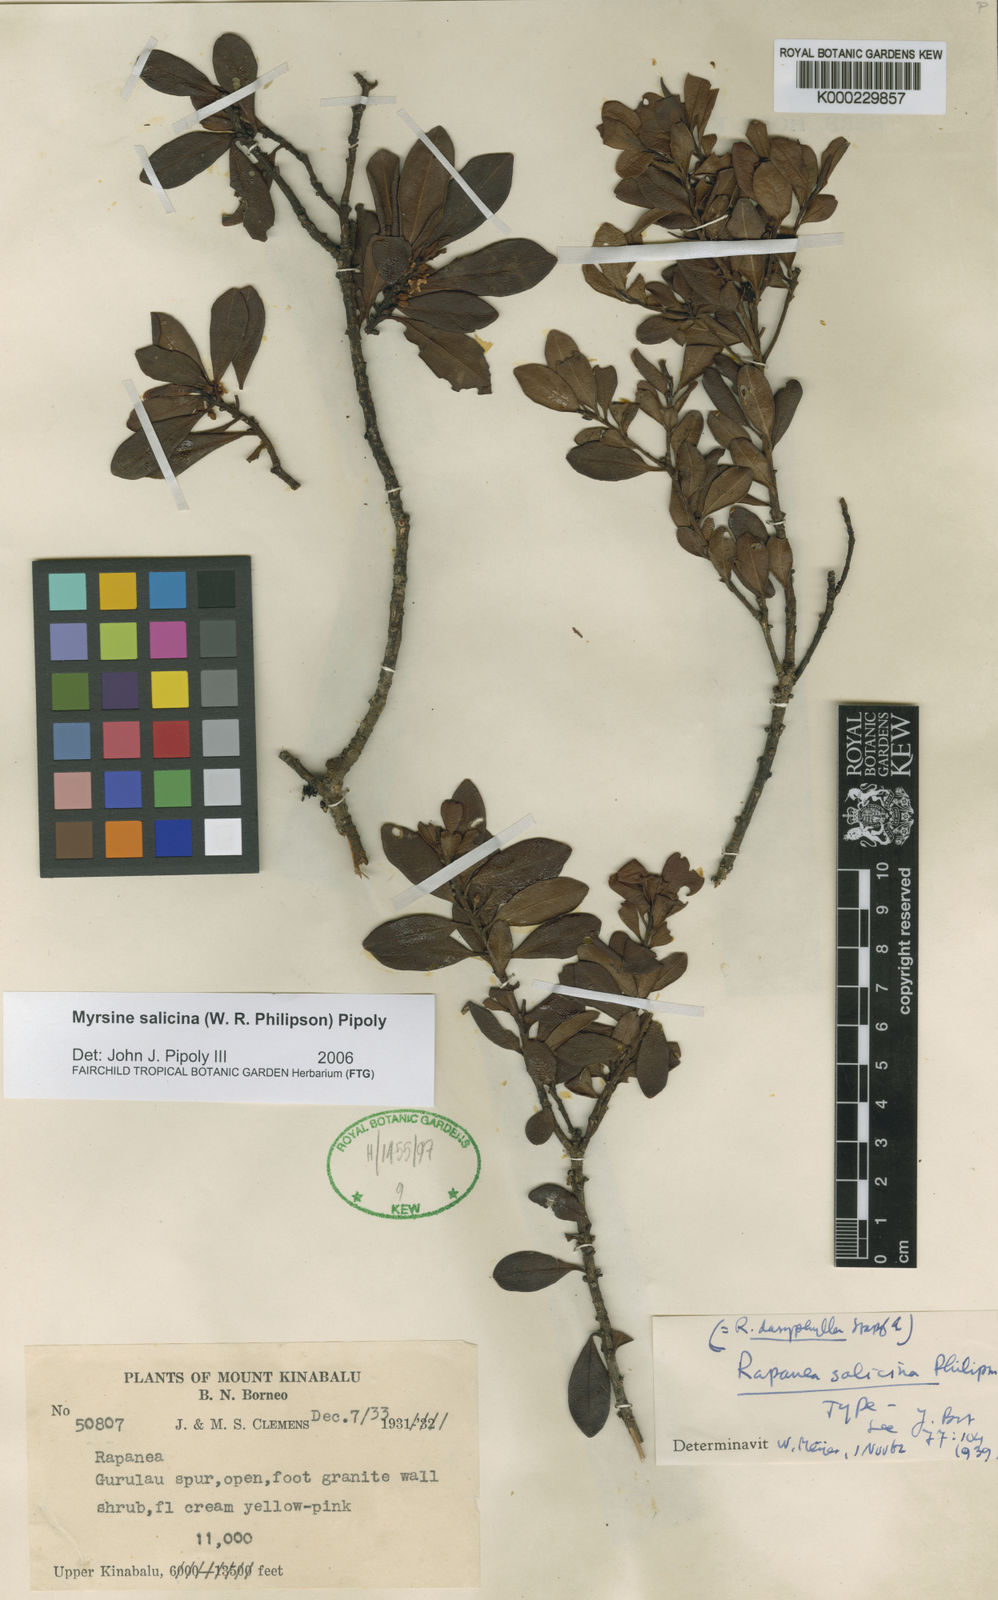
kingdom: Plantae
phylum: Tracheophyta
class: Magnoliopsida
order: Ericales
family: Primulaceae
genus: Myrsine
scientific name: Myrsine salicina
